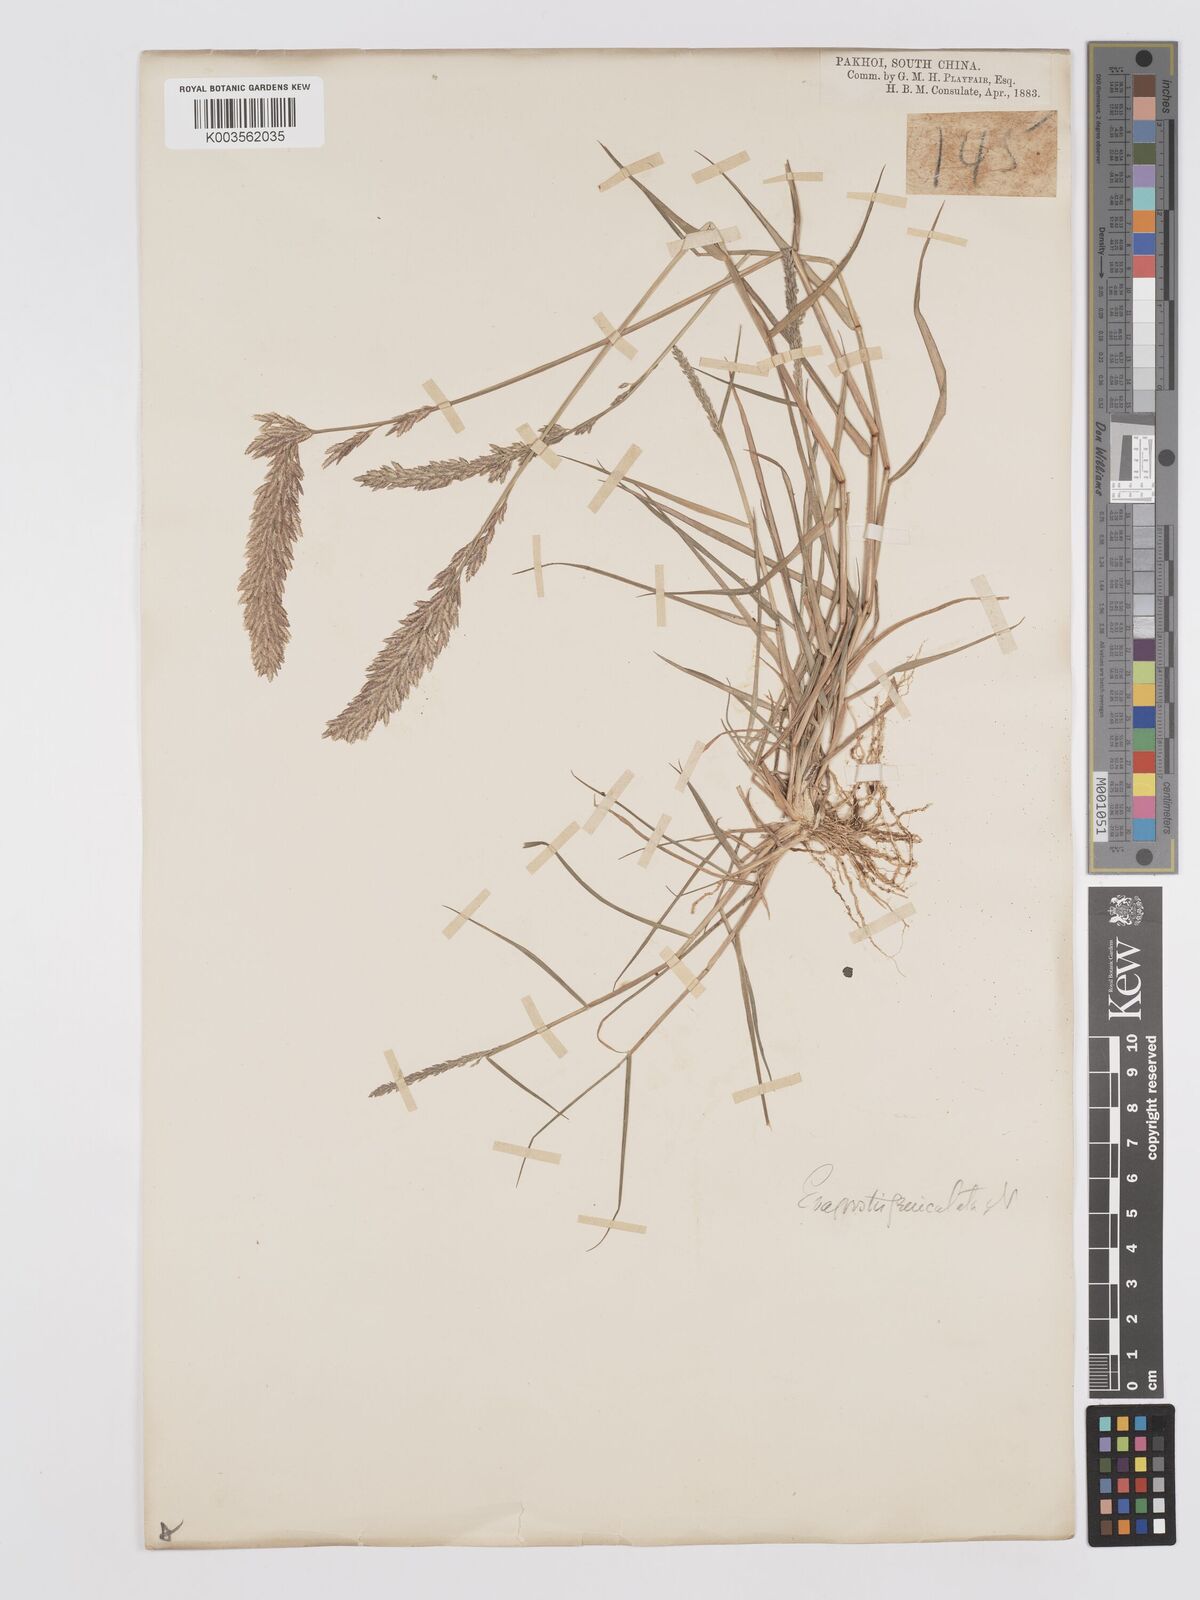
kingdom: Plantae
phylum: Tracheophyta
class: Liliopsida
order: Poales
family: Poaceae
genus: Eragrostis
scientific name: Eragrostis cylindrica
